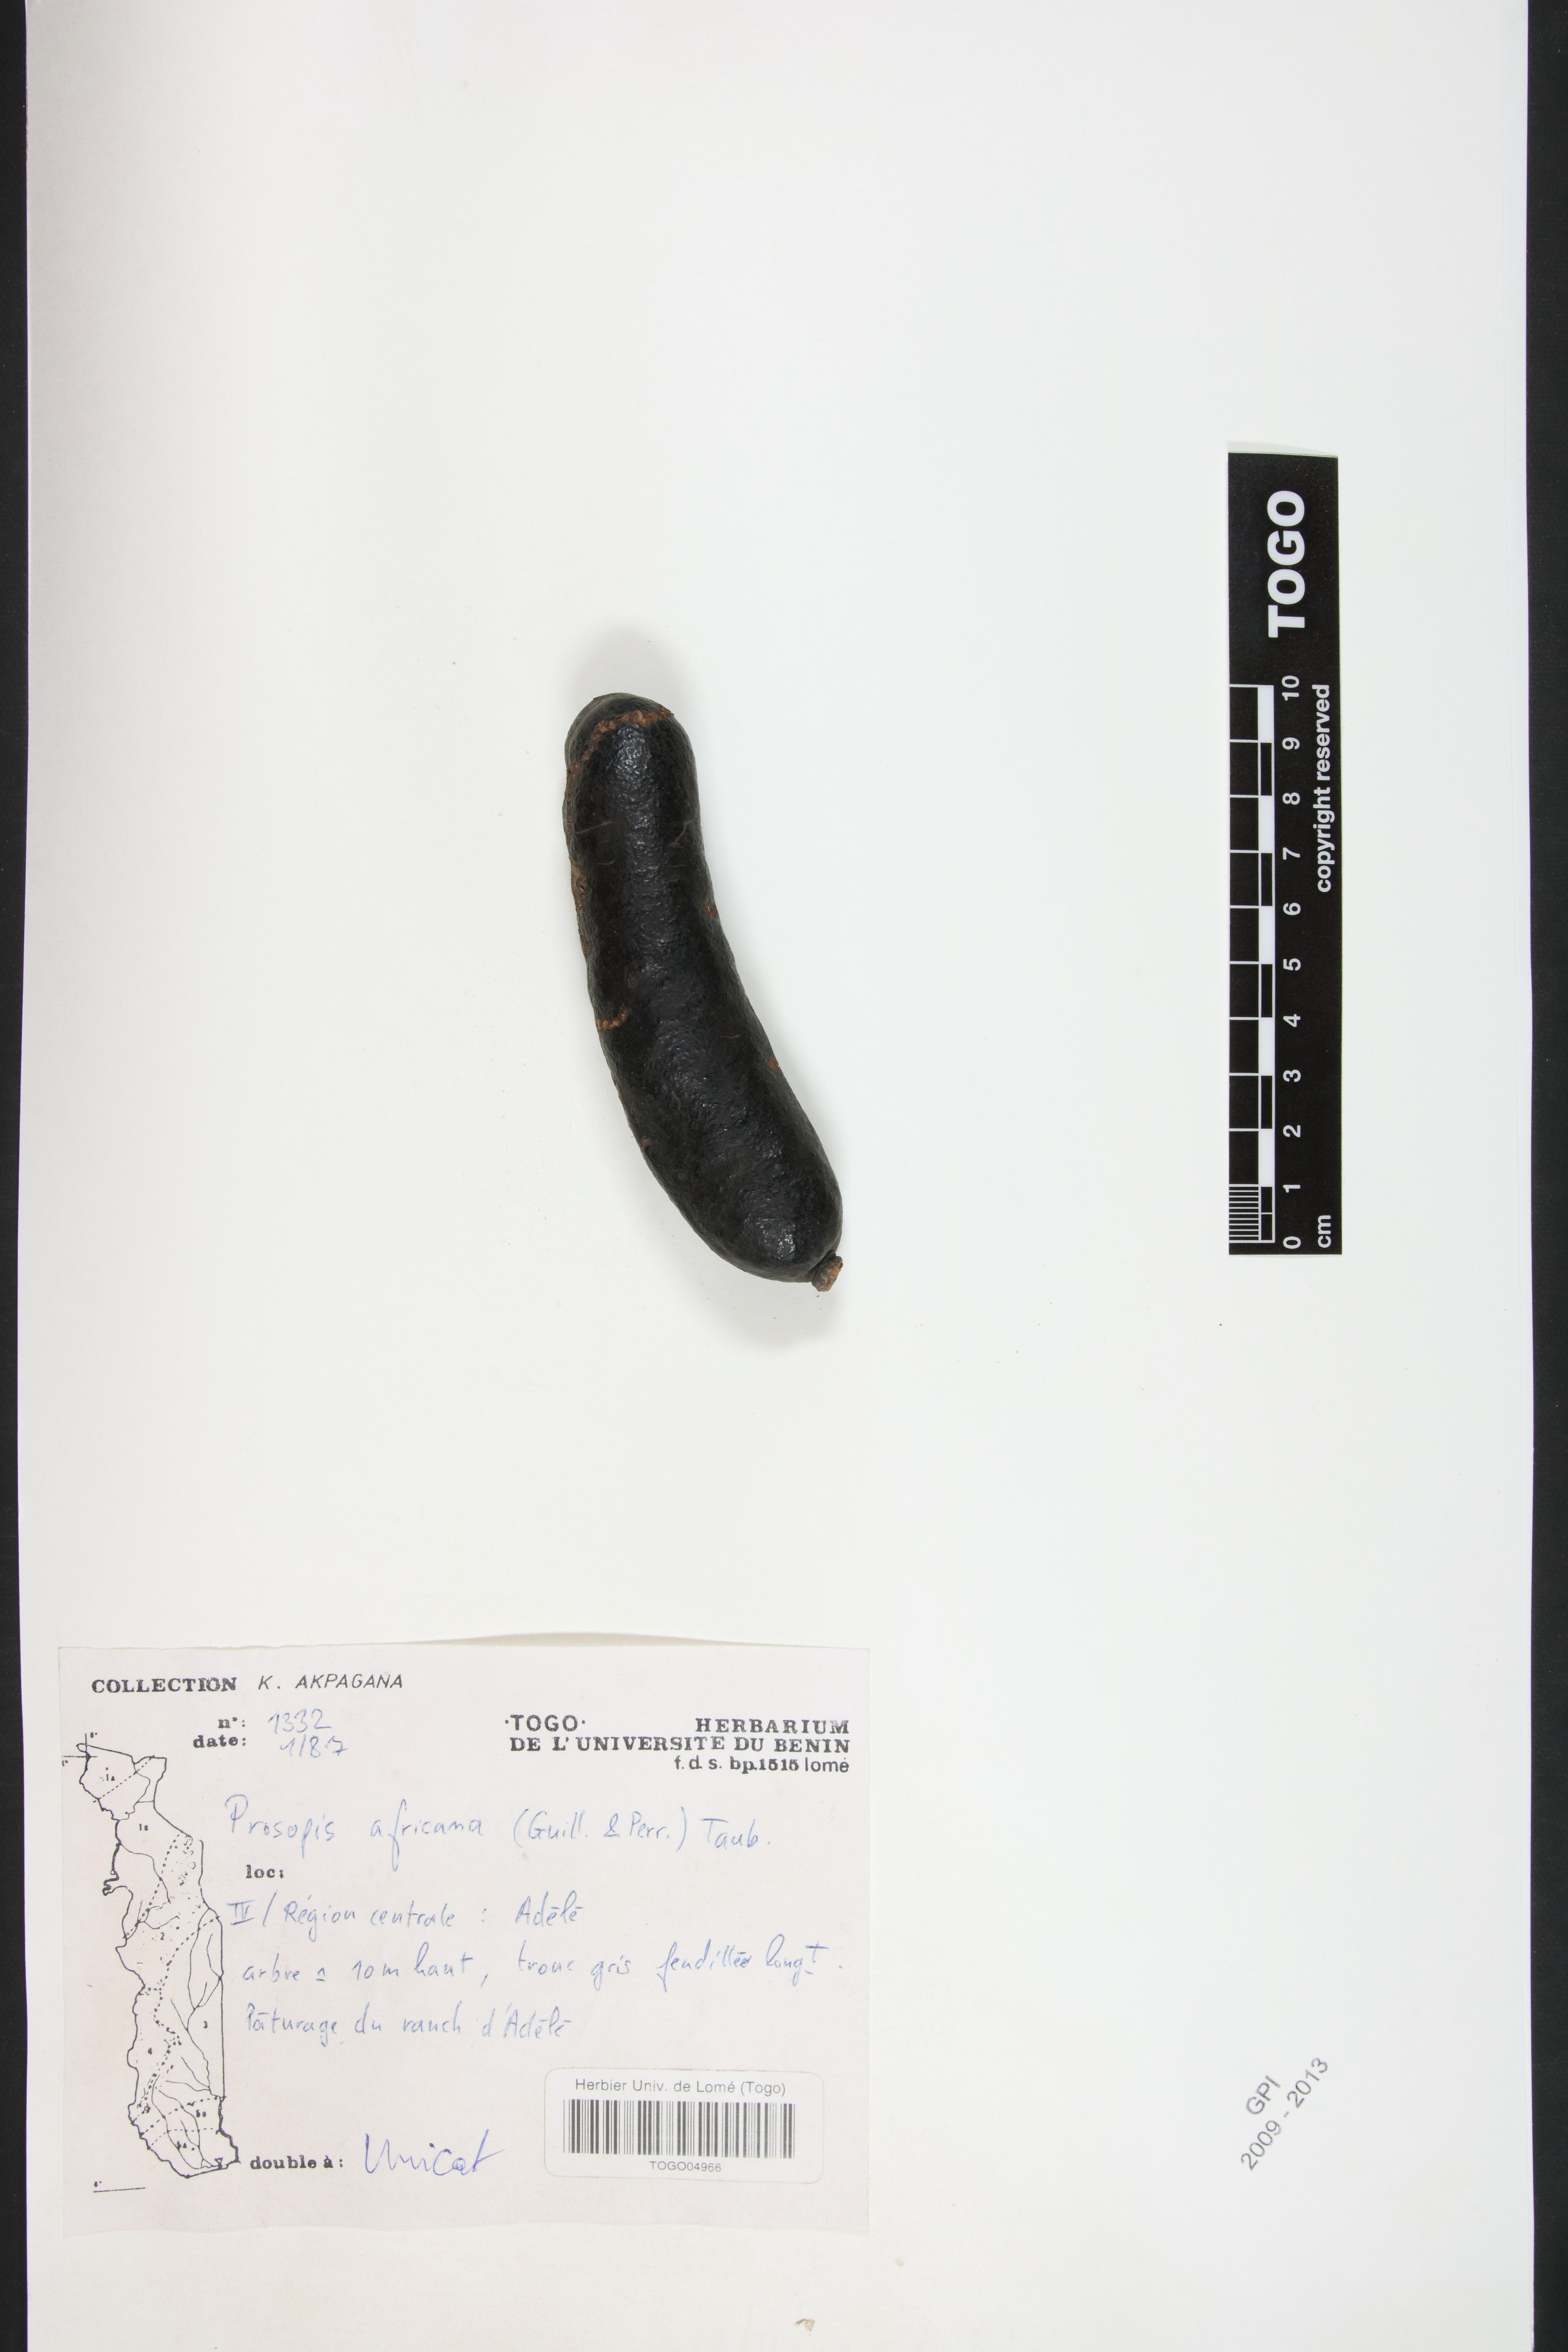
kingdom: Plantae
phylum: Tracheophyta
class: Magnoliopsida
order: Fabales
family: Fabaceae
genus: Prosopis
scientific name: Prosopis africana
